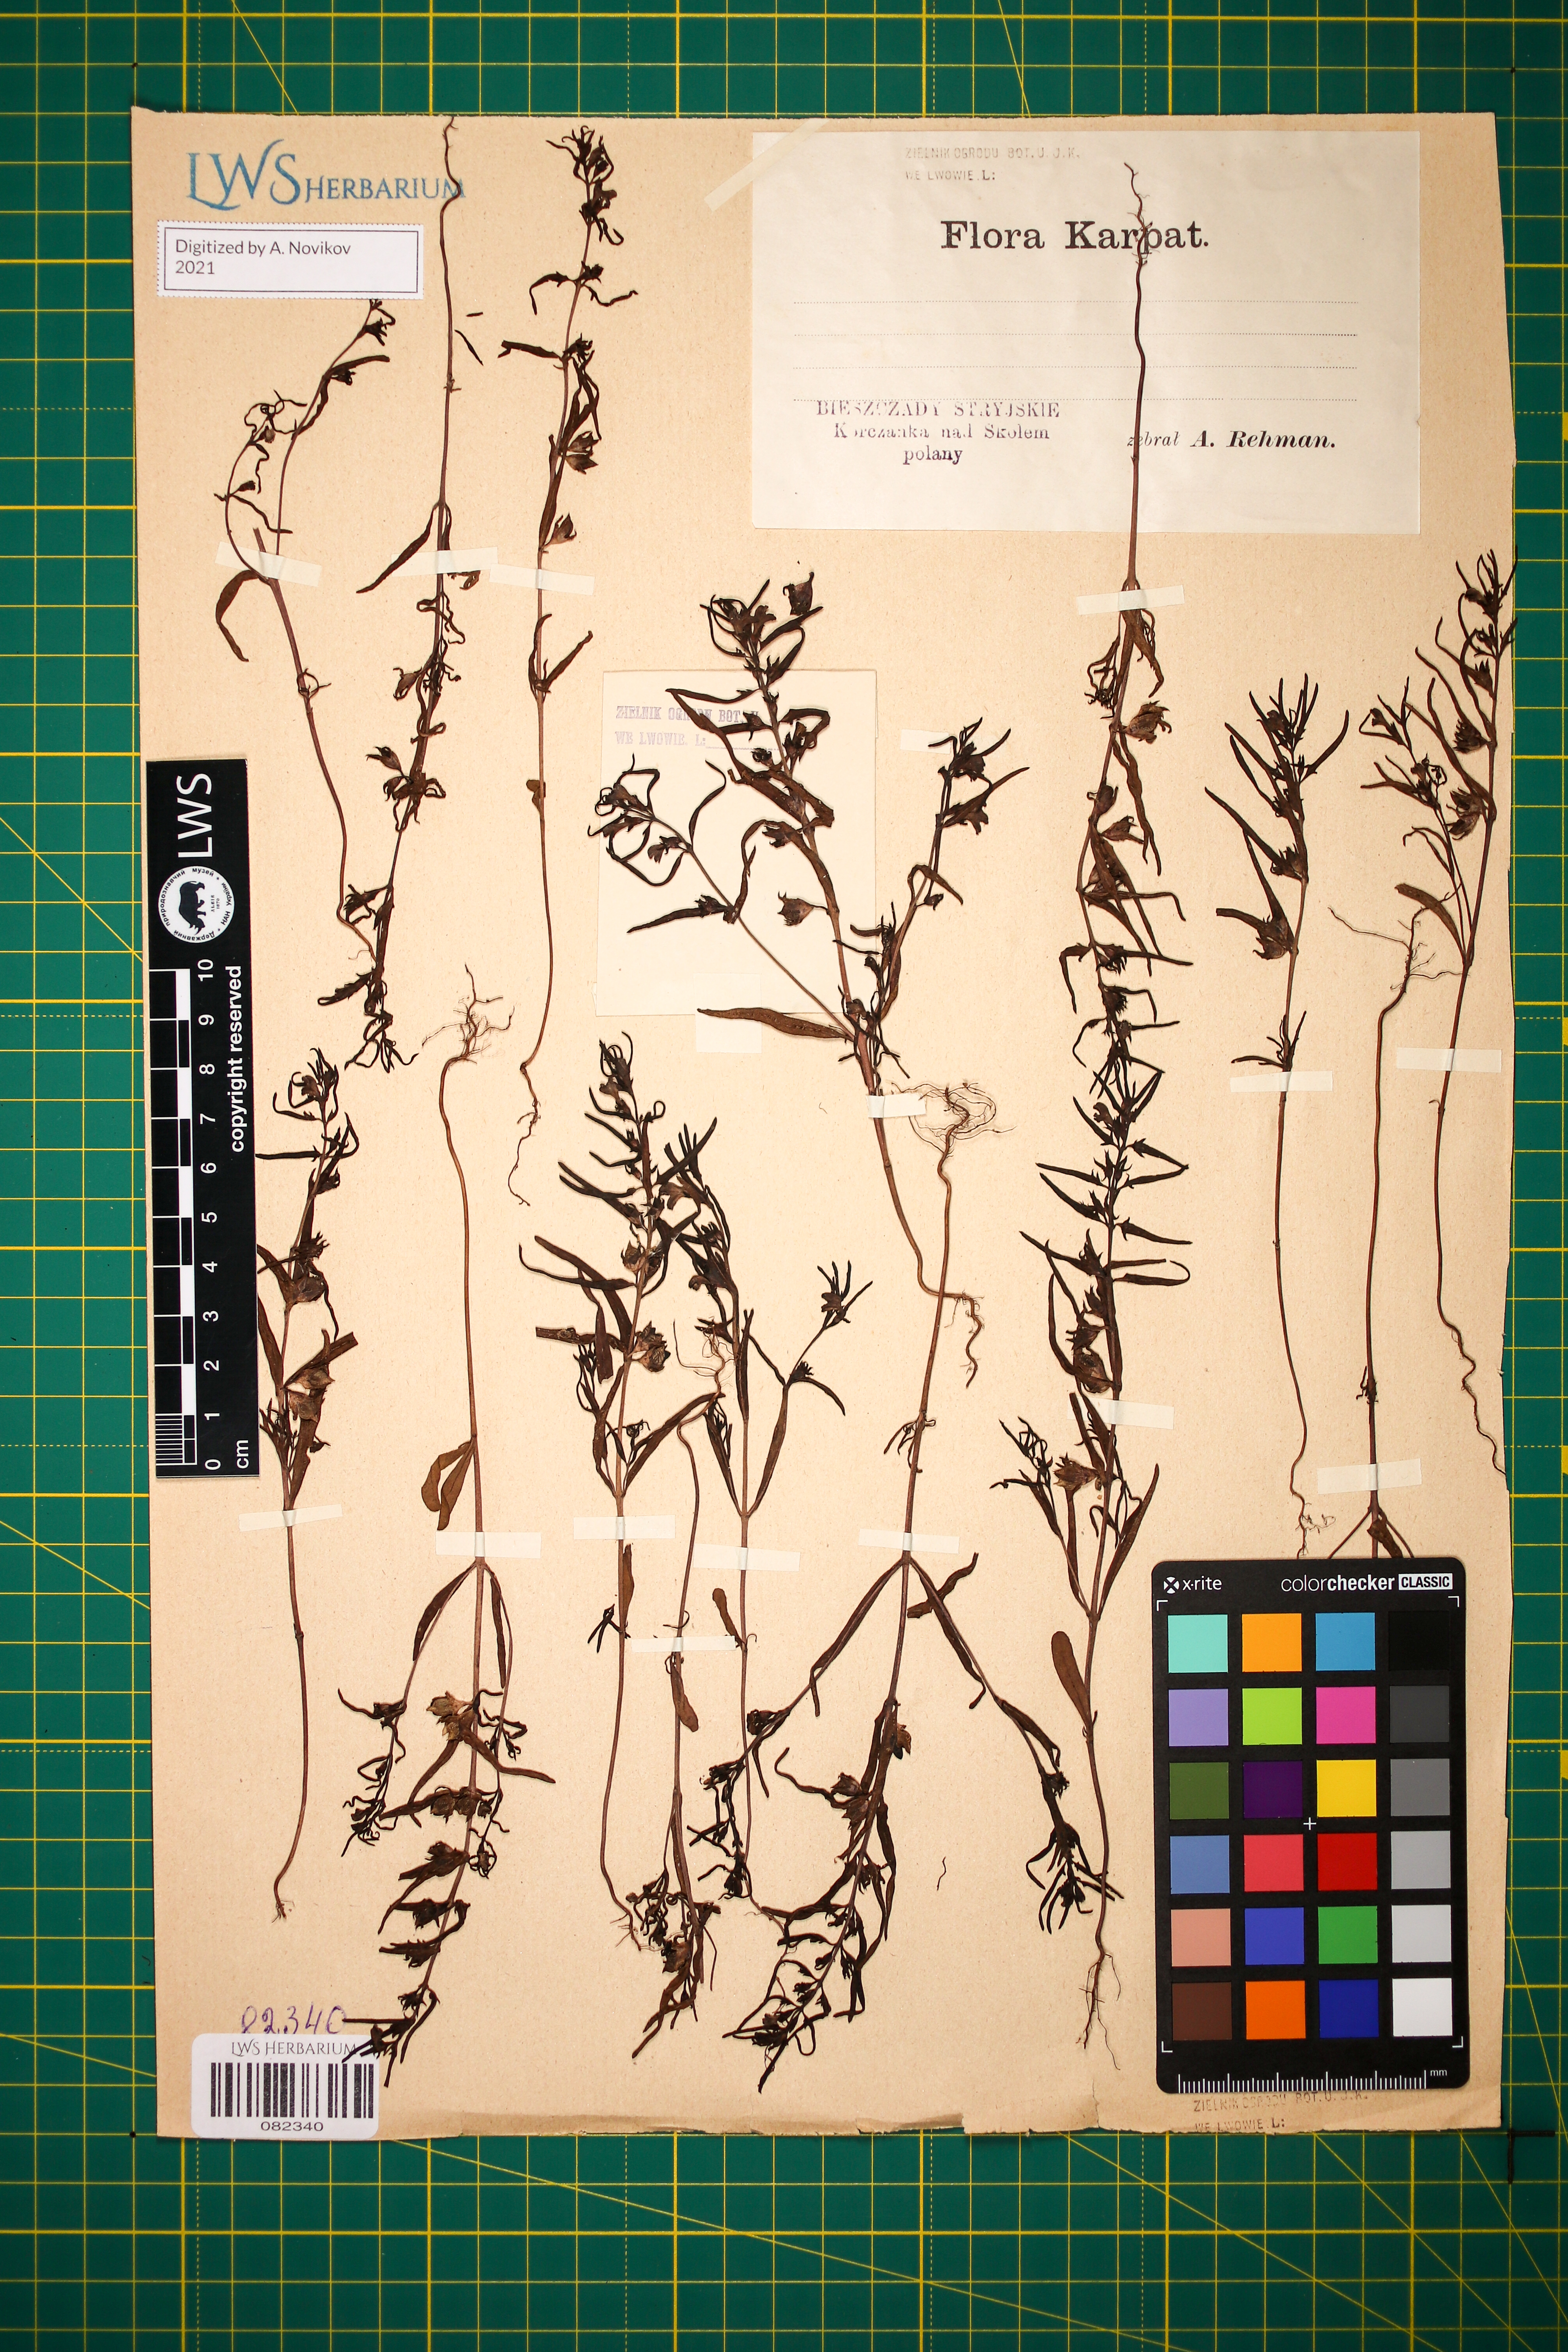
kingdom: Plantae
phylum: Tracheophyta
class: Magnoliopsida
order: Lamiales
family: Orobanchaceae
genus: Melampyrum
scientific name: Melampyrum saxosum
